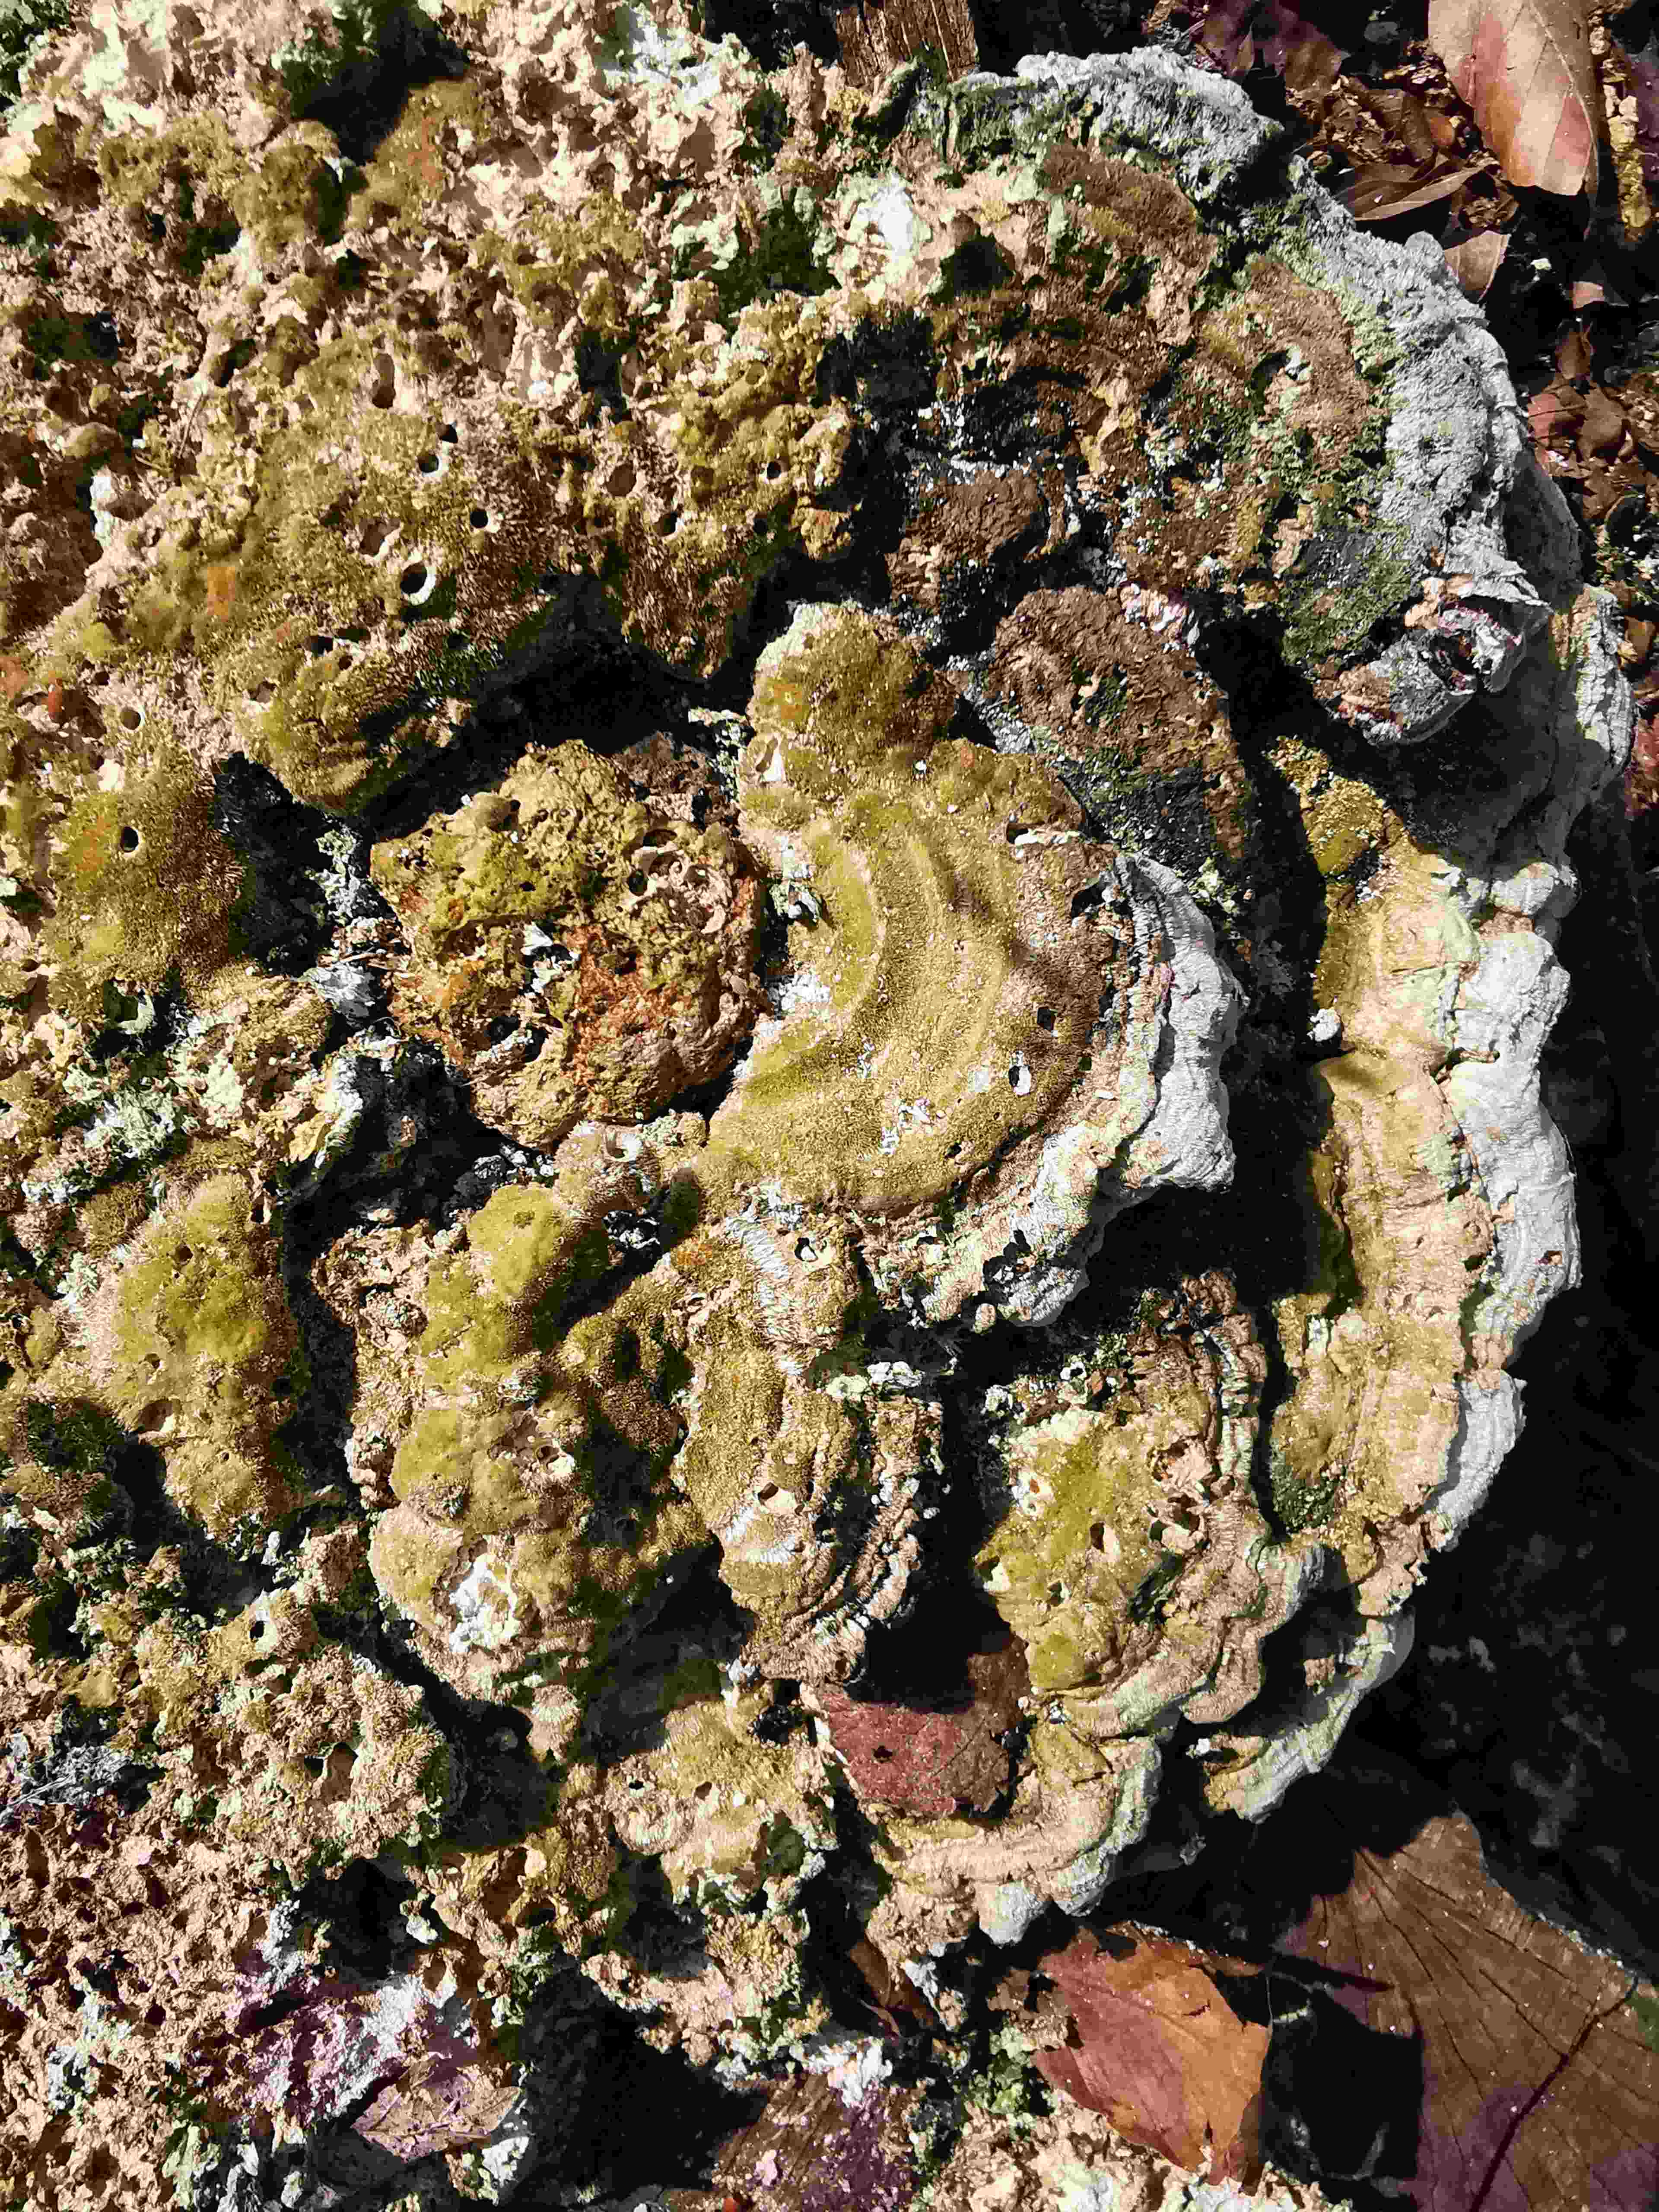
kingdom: Fungi
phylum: Basidiomycota
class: Agaricomycetes
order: Polyporales
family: Polyporaceae
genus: Trametes
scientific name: Trametes gibbosa
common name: puklet læderporesvamp
